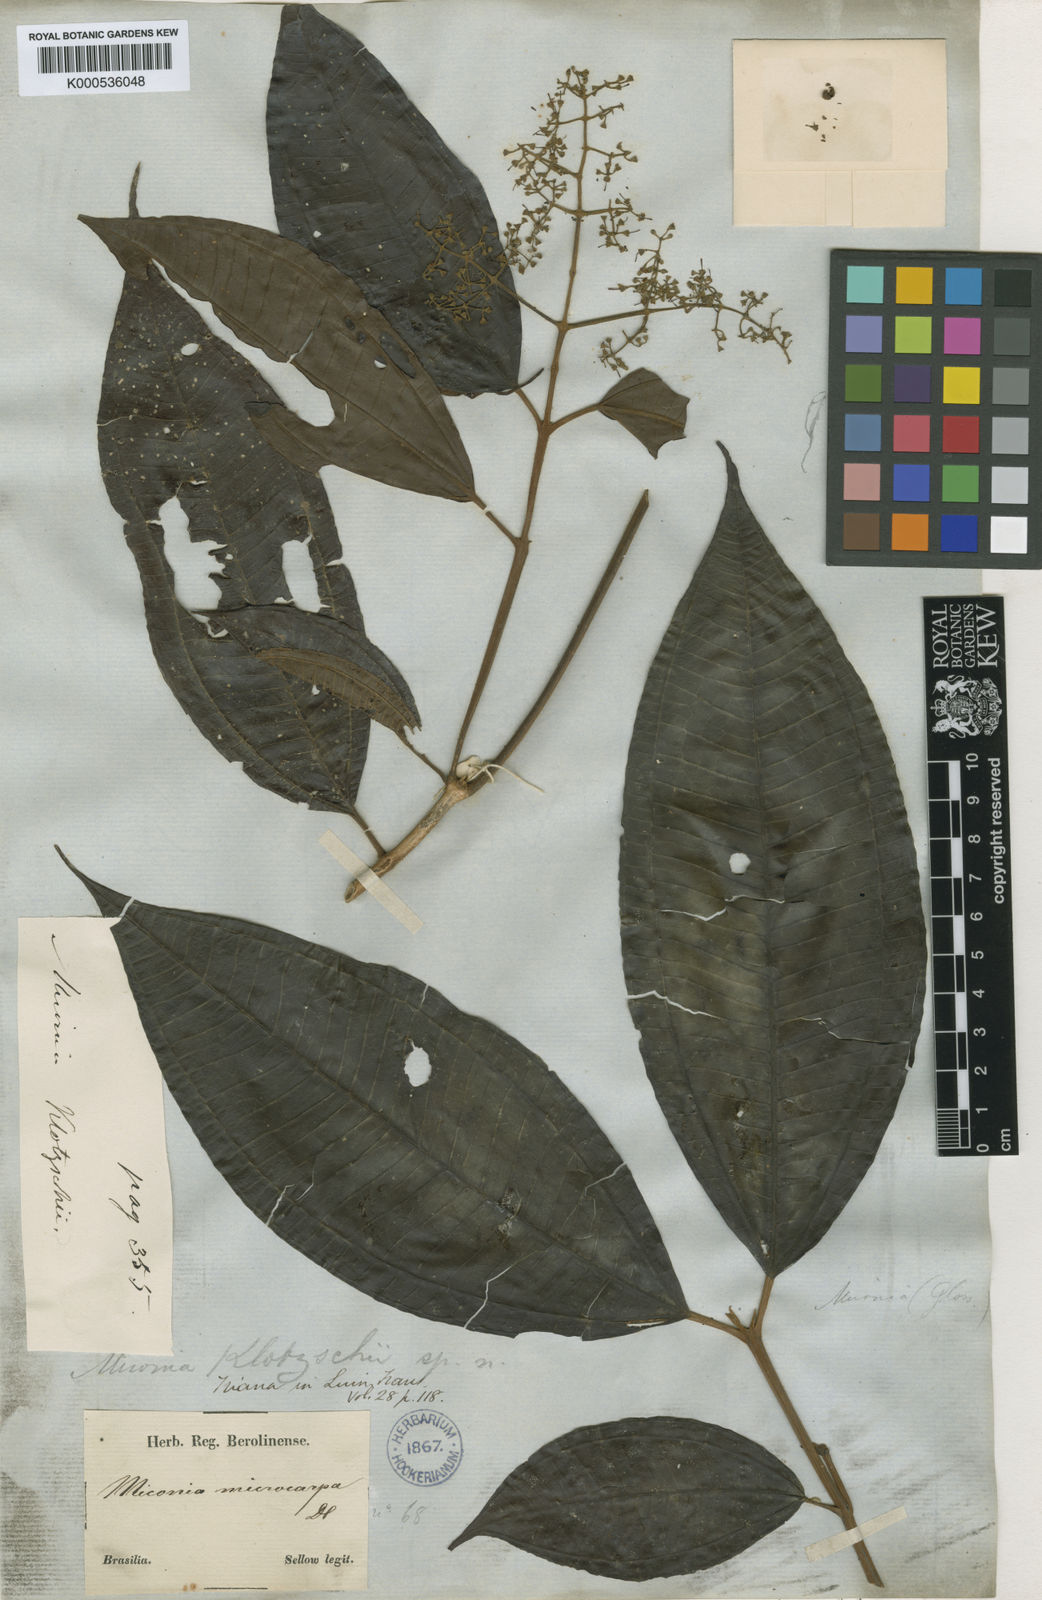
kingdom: Plantae
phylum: Tracheophyta
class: Magnoliopsida
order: Myrtales
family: Melastomataceae
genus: Miconia
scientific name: Miconia klotzschii
